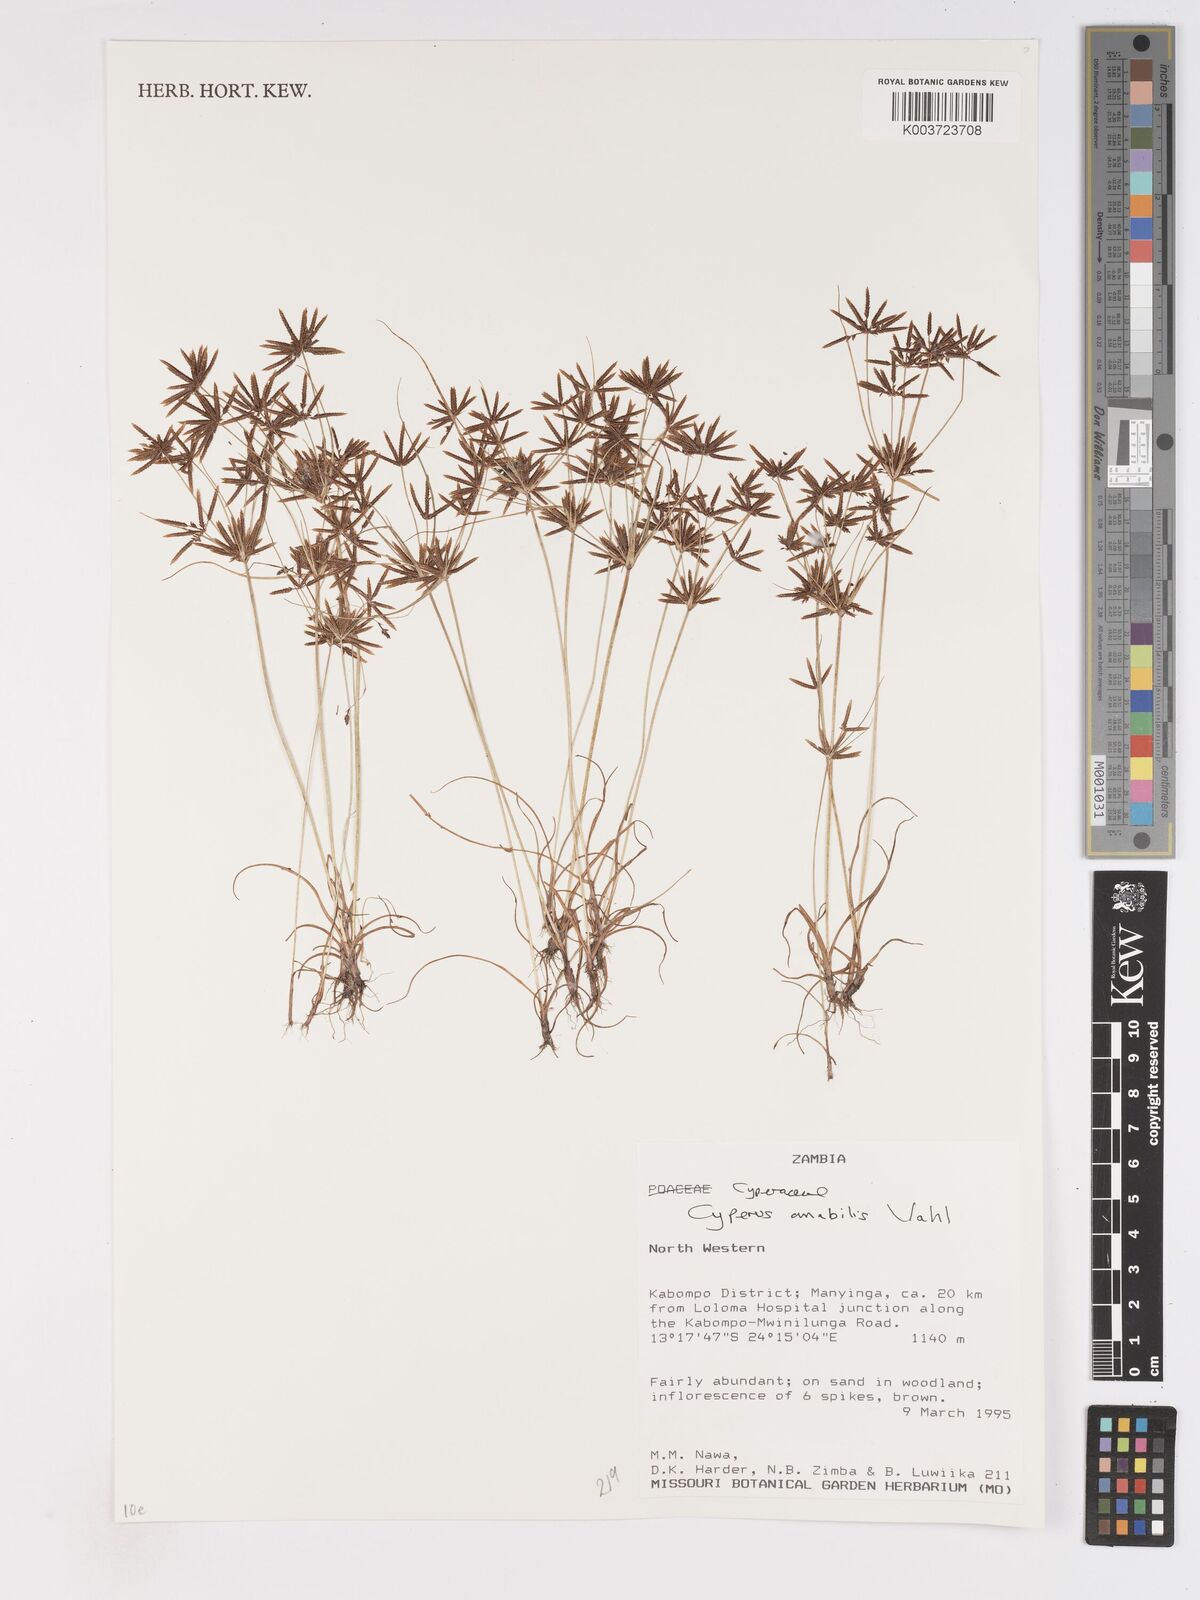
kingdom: Plantae
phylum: Tracheophyta
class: Liliopsida
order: Poales
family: Cyperaceae
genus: Cyperus
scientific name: Cyperus amabilis
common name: Foothill flat sedge
